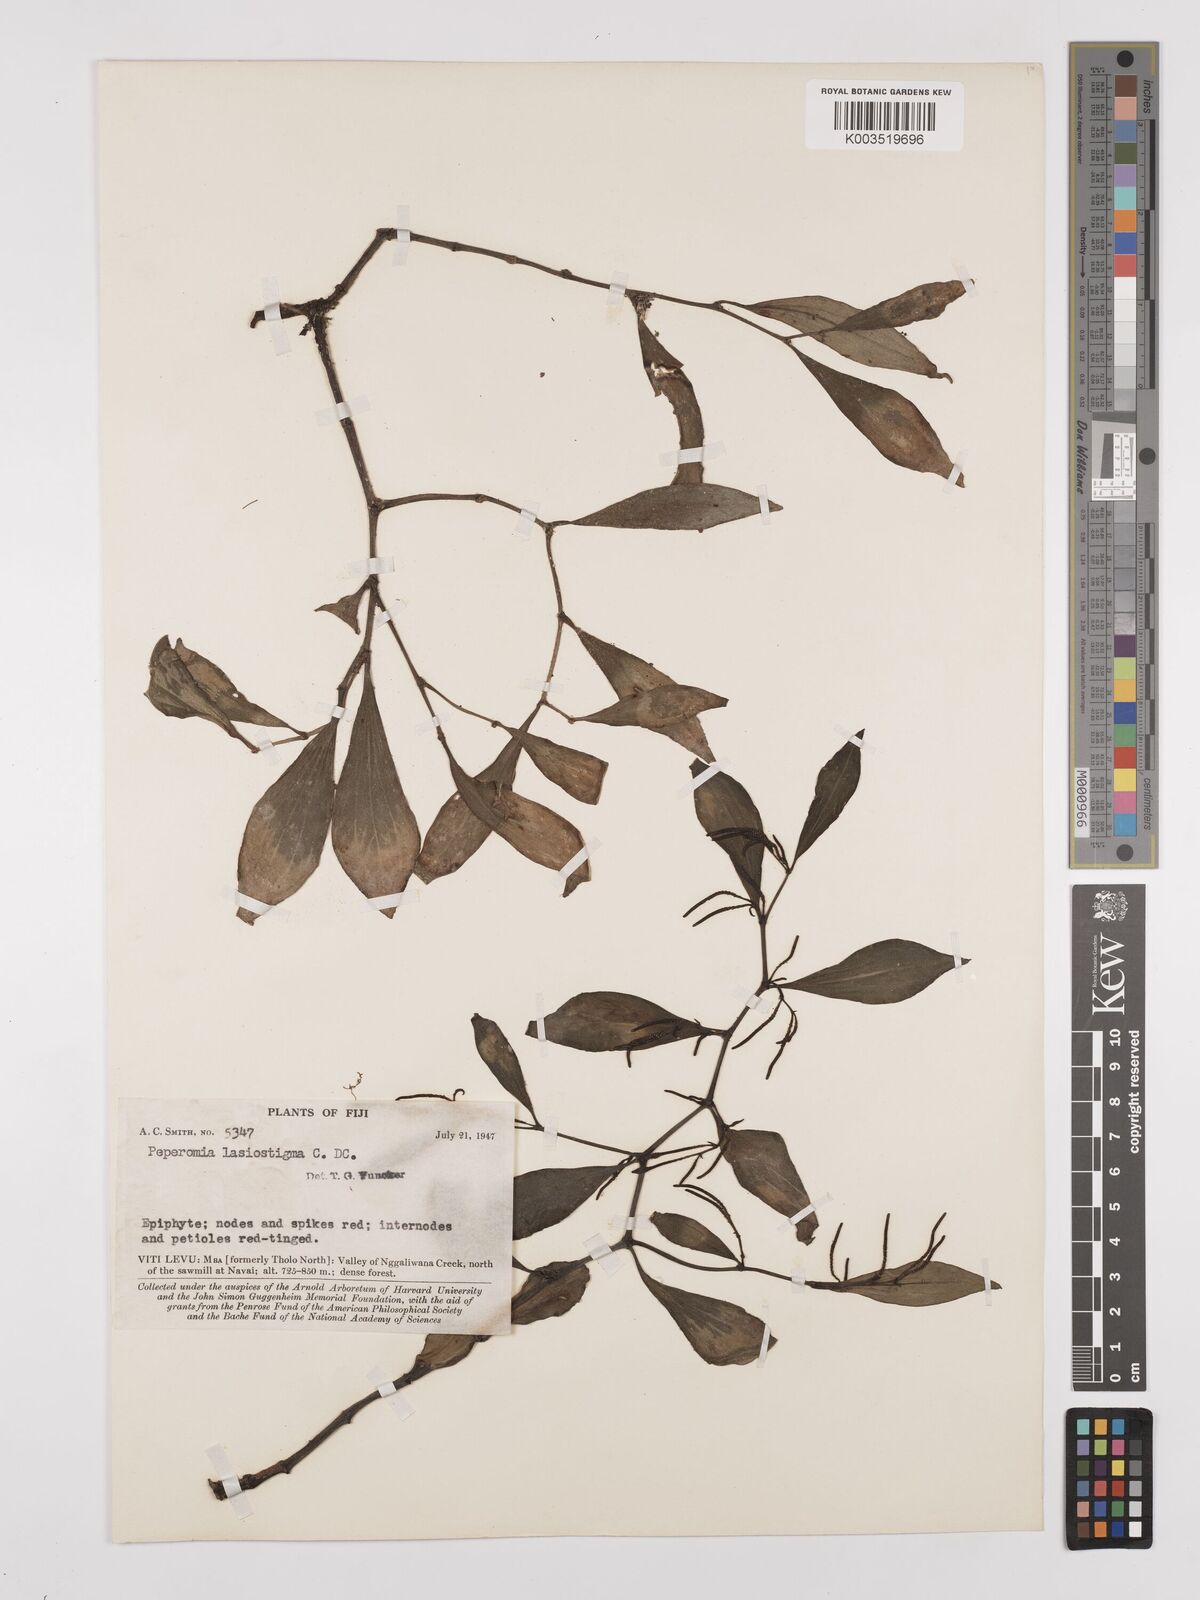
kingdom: Plantae
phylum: Tracheophyta
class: Magnoliopsida
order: Piperales
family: Piperaceae
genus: Peperomia
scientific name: Peperomia lasiostigma
